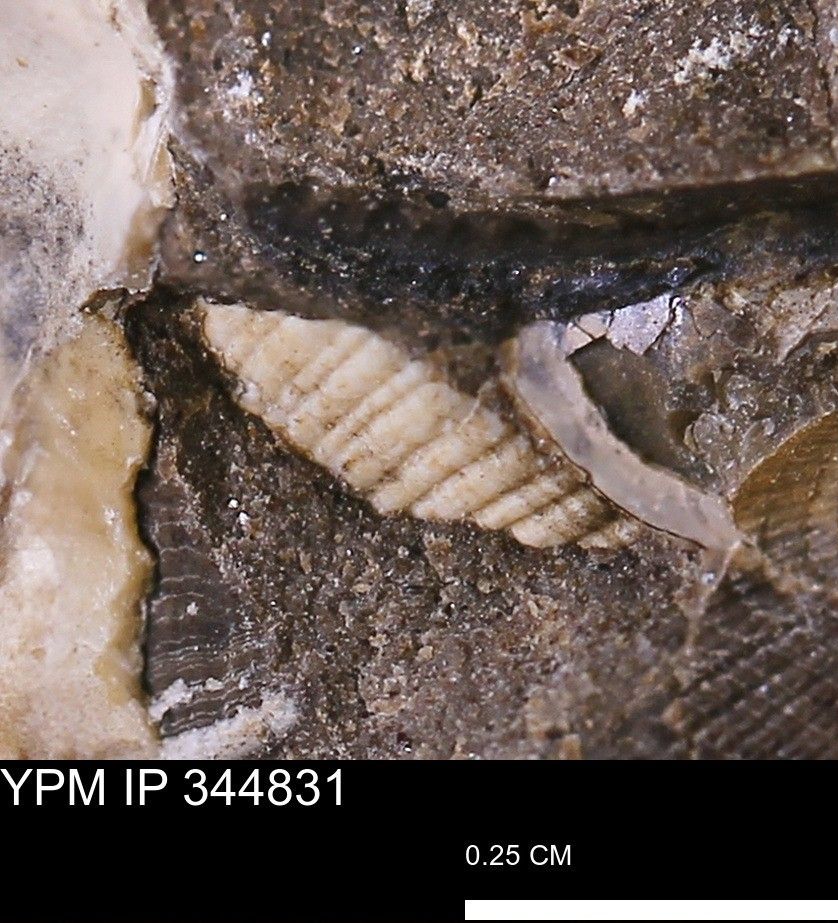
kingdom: Animalia
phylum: Mollusca
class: Bivalvia
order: Arcida
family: Limopsidae
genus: Limopsis
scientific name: Limopsis
